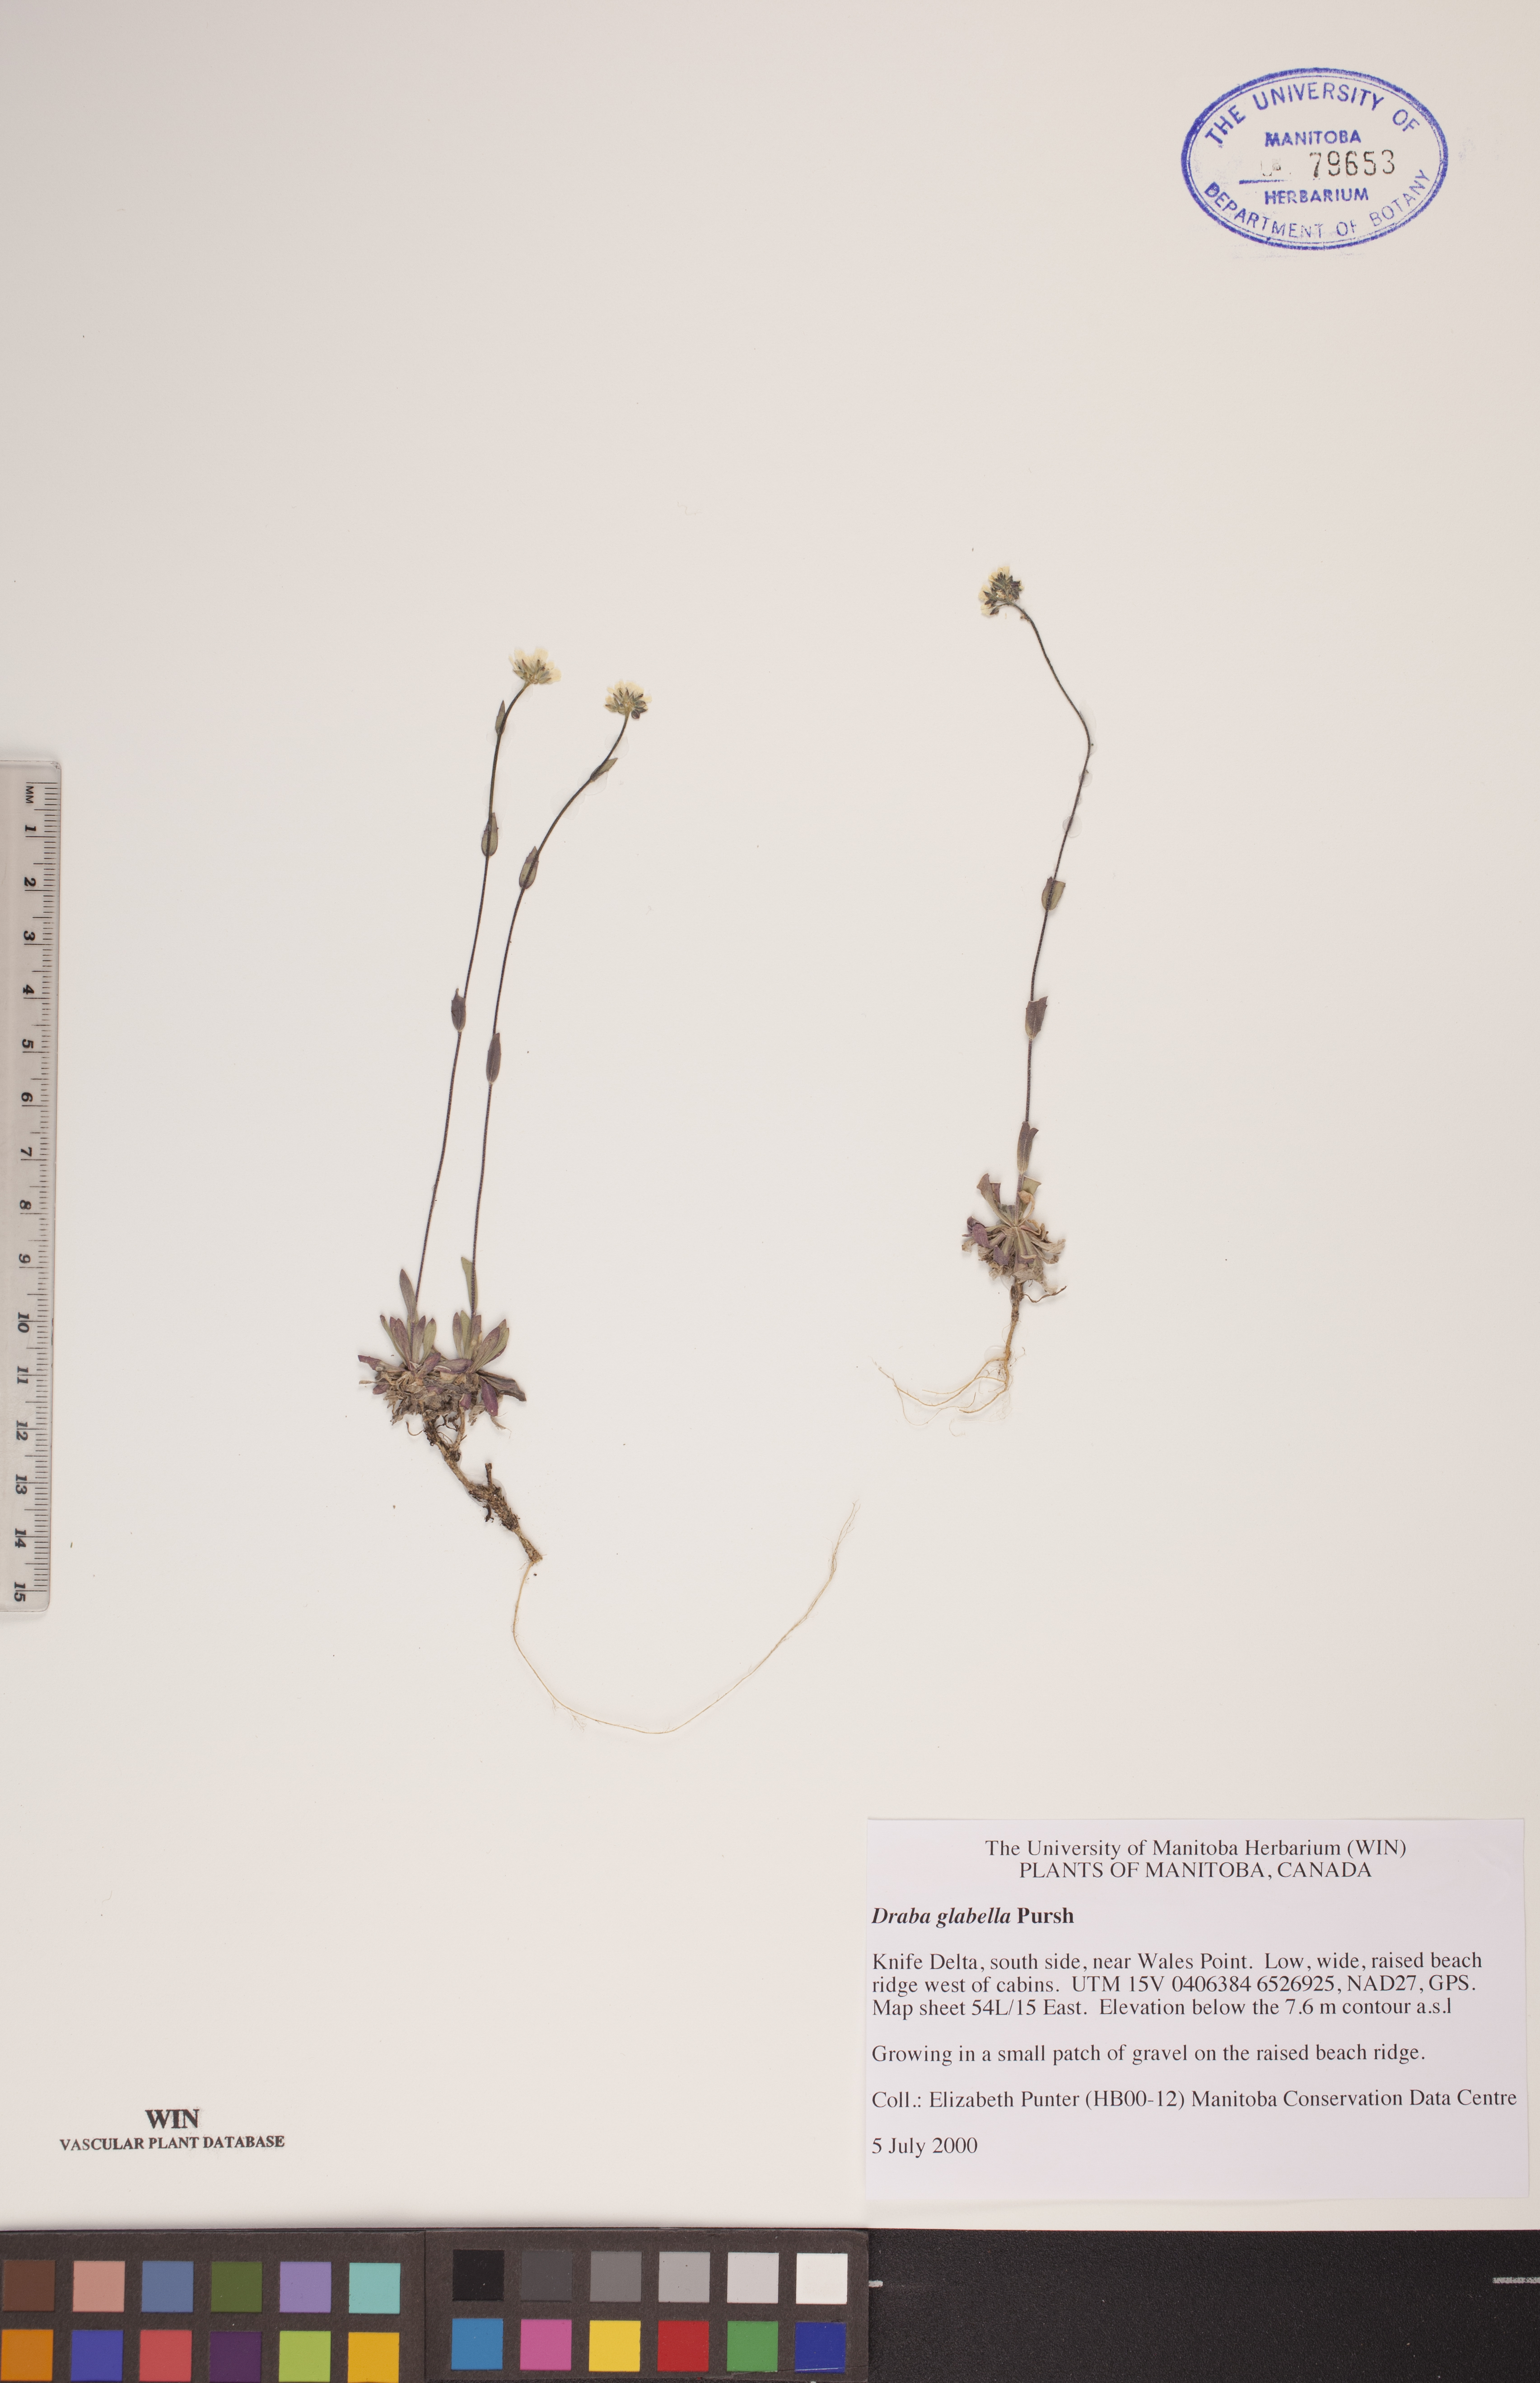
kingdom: Plantae
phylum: Tracheophyta
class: Magnoliopsida
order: Brassicales
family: Brassicaceae
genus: Draba
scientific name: Draba glabella
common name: Glaucous draba
